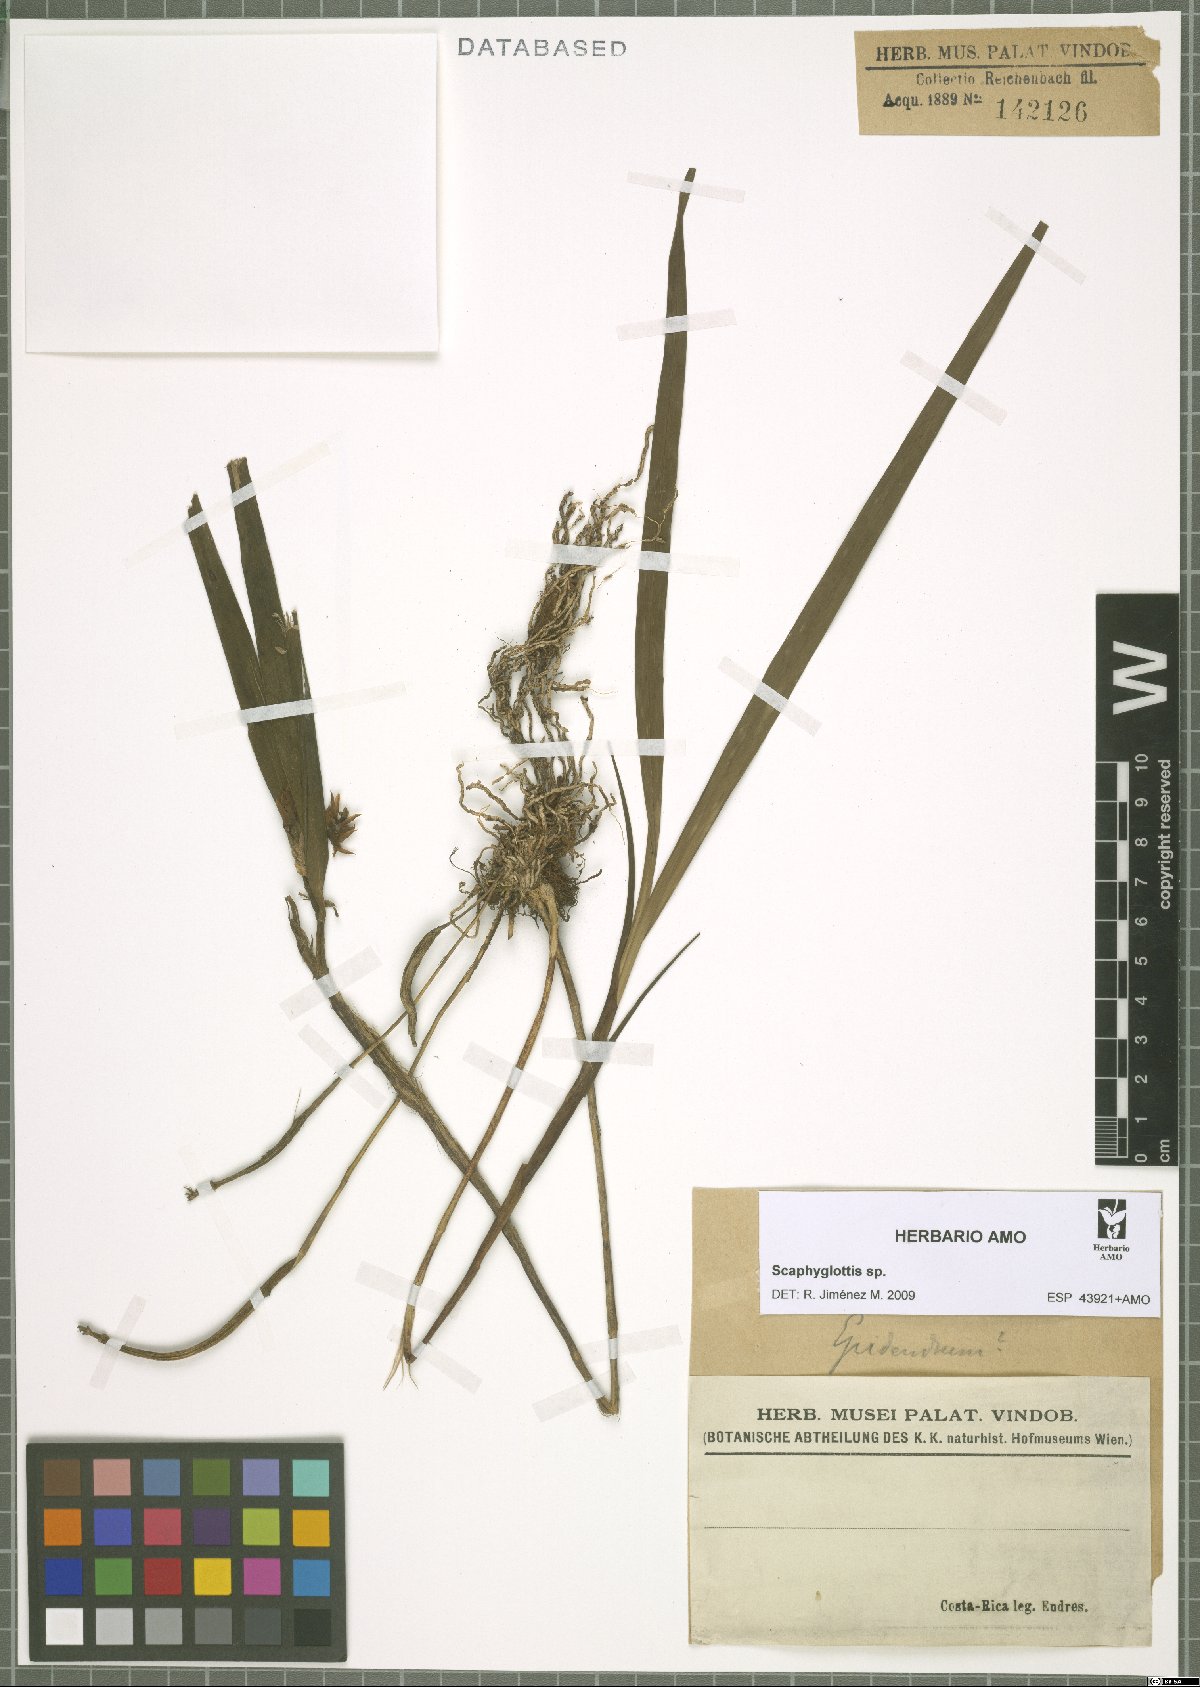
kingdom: Plantae
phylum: Tracheophyta
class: Liliopsida
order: Asparagales
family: Orchidaceae
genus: Scaphyglottis
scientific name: Scaphyglottis
